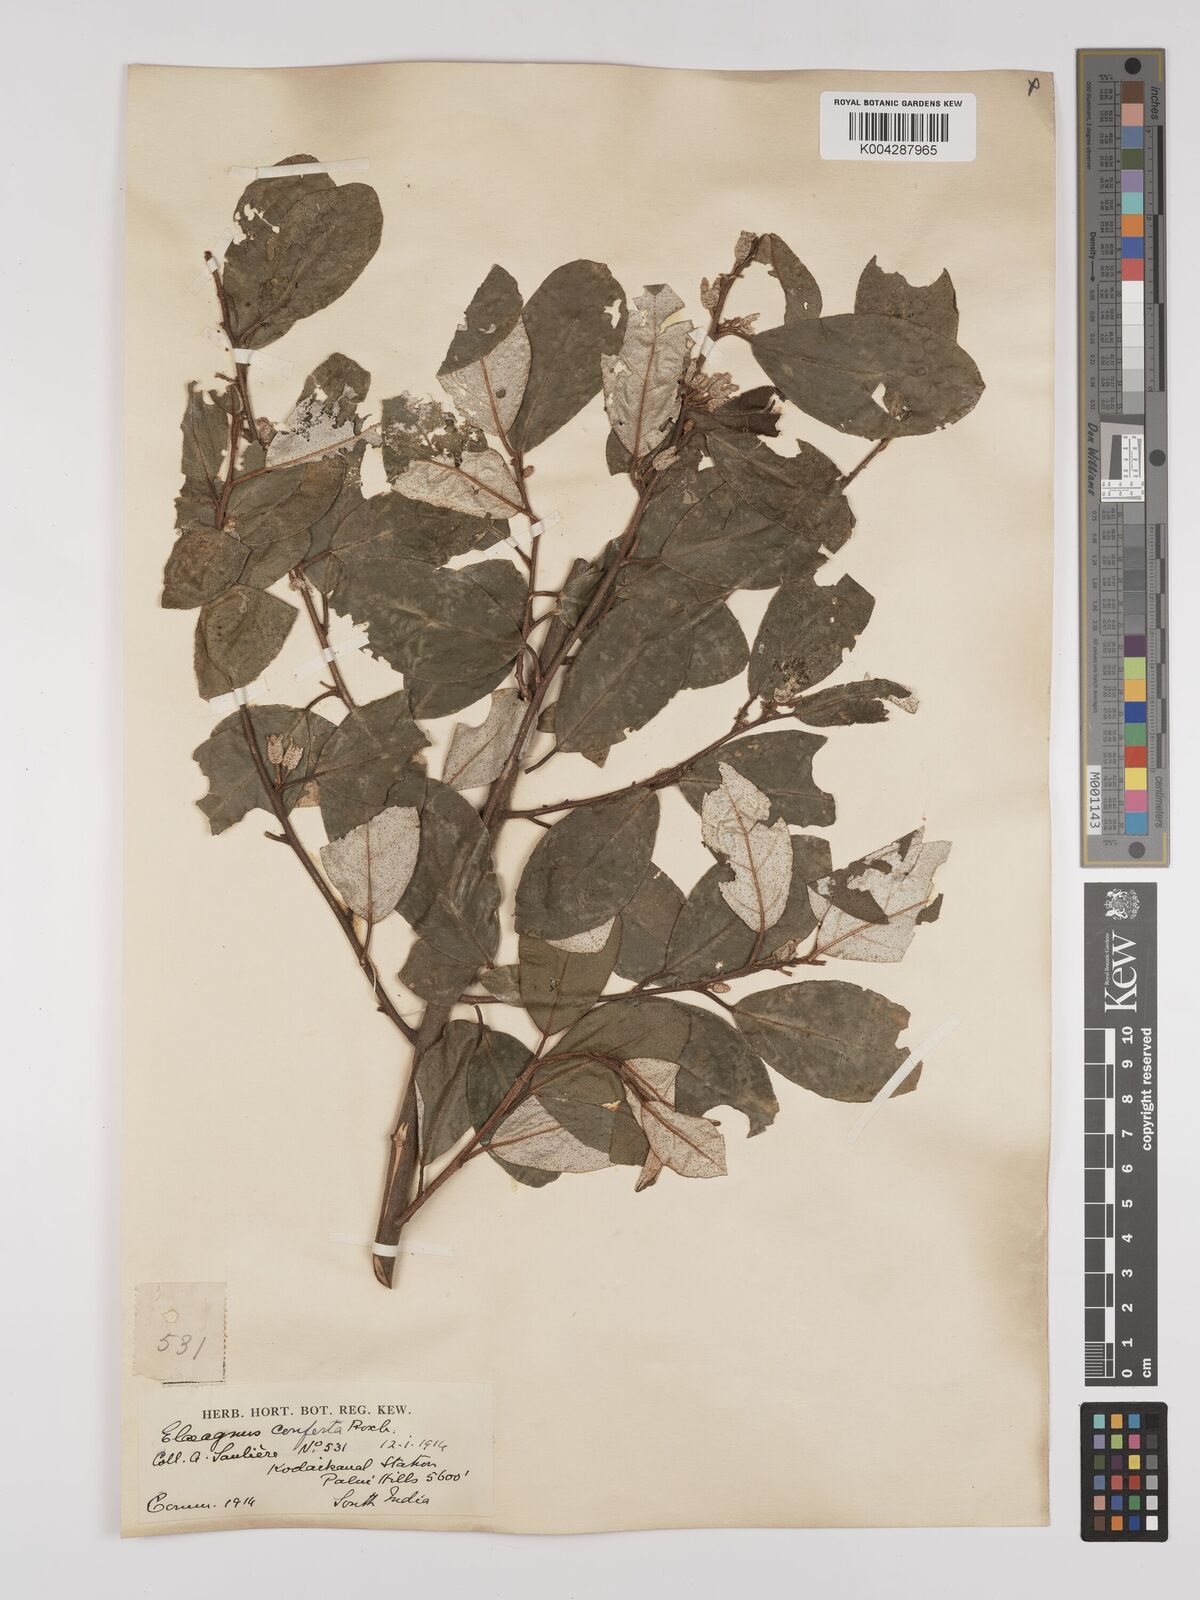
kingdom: Plantae
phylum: Tracheophyta
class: Magnoliopsida
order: Rosales
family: Elaeagnaceae
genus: Elaeagnus
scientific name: Elaeagnus conferta
